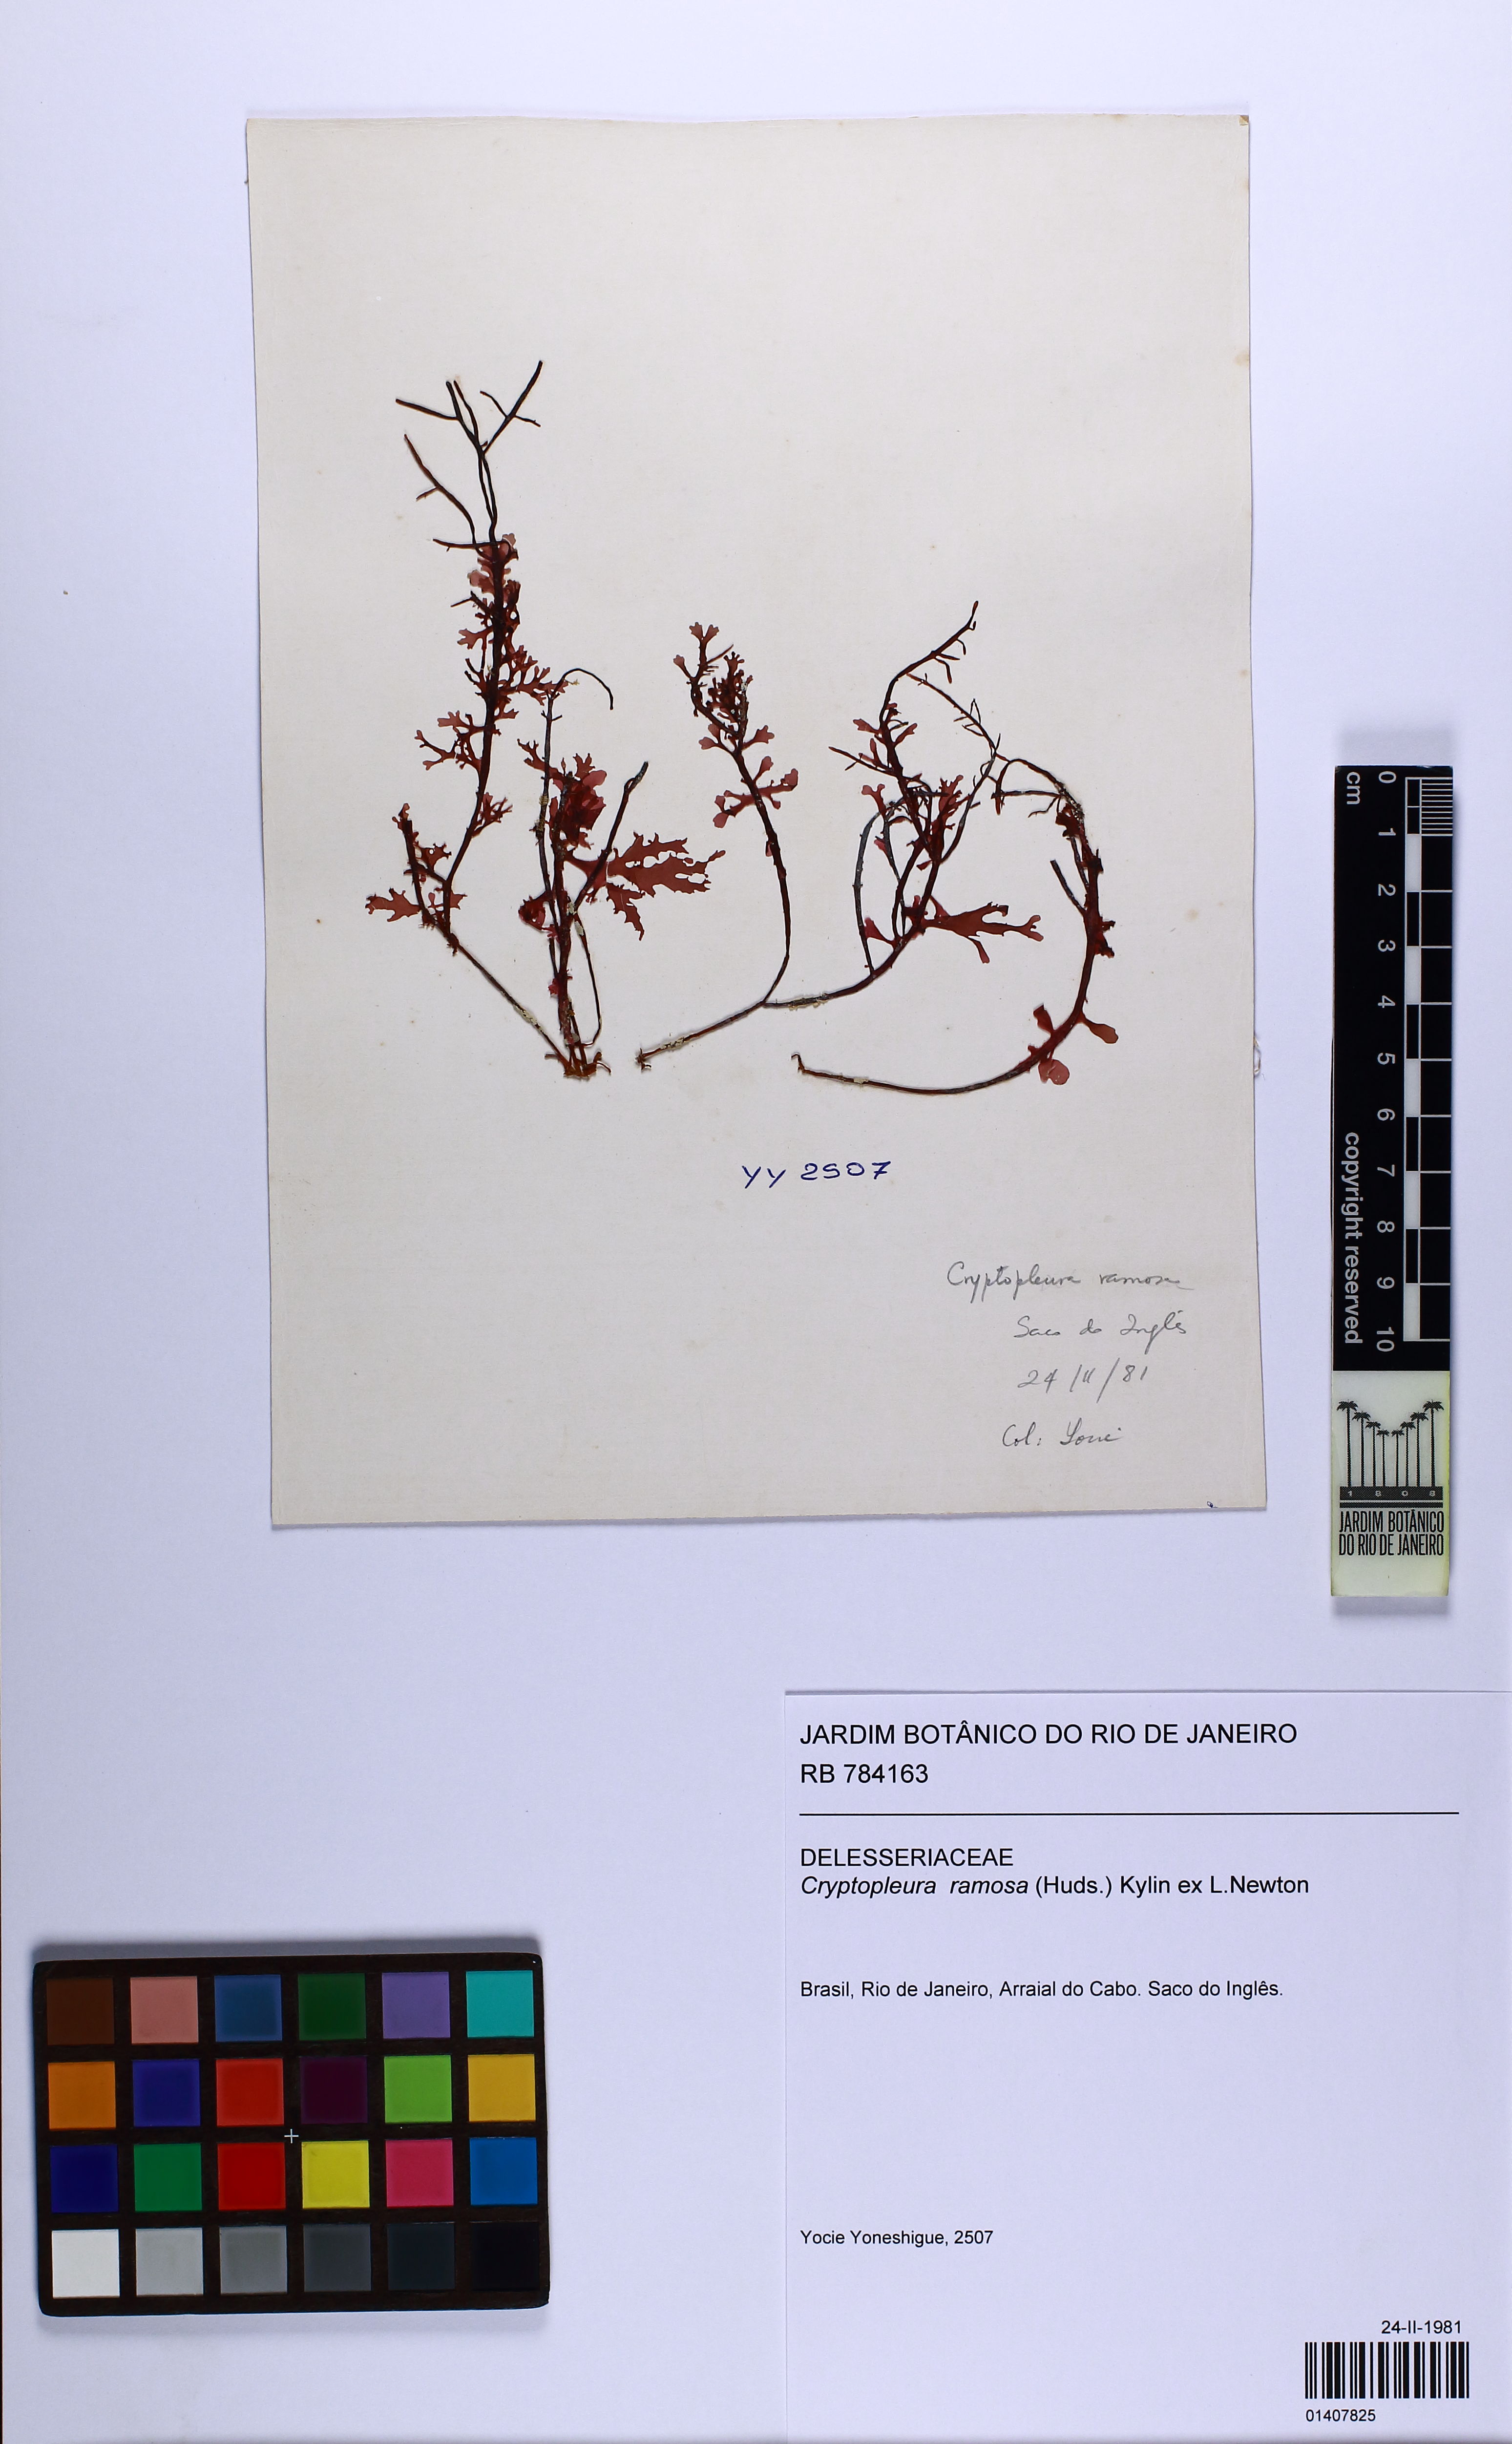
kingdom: Plantae
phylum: Rhodophyta
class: Florideophyceae
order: Ceramiales
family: Delesseriaceae
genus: Cryptopleura
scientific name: Cryptopleura ramosa
